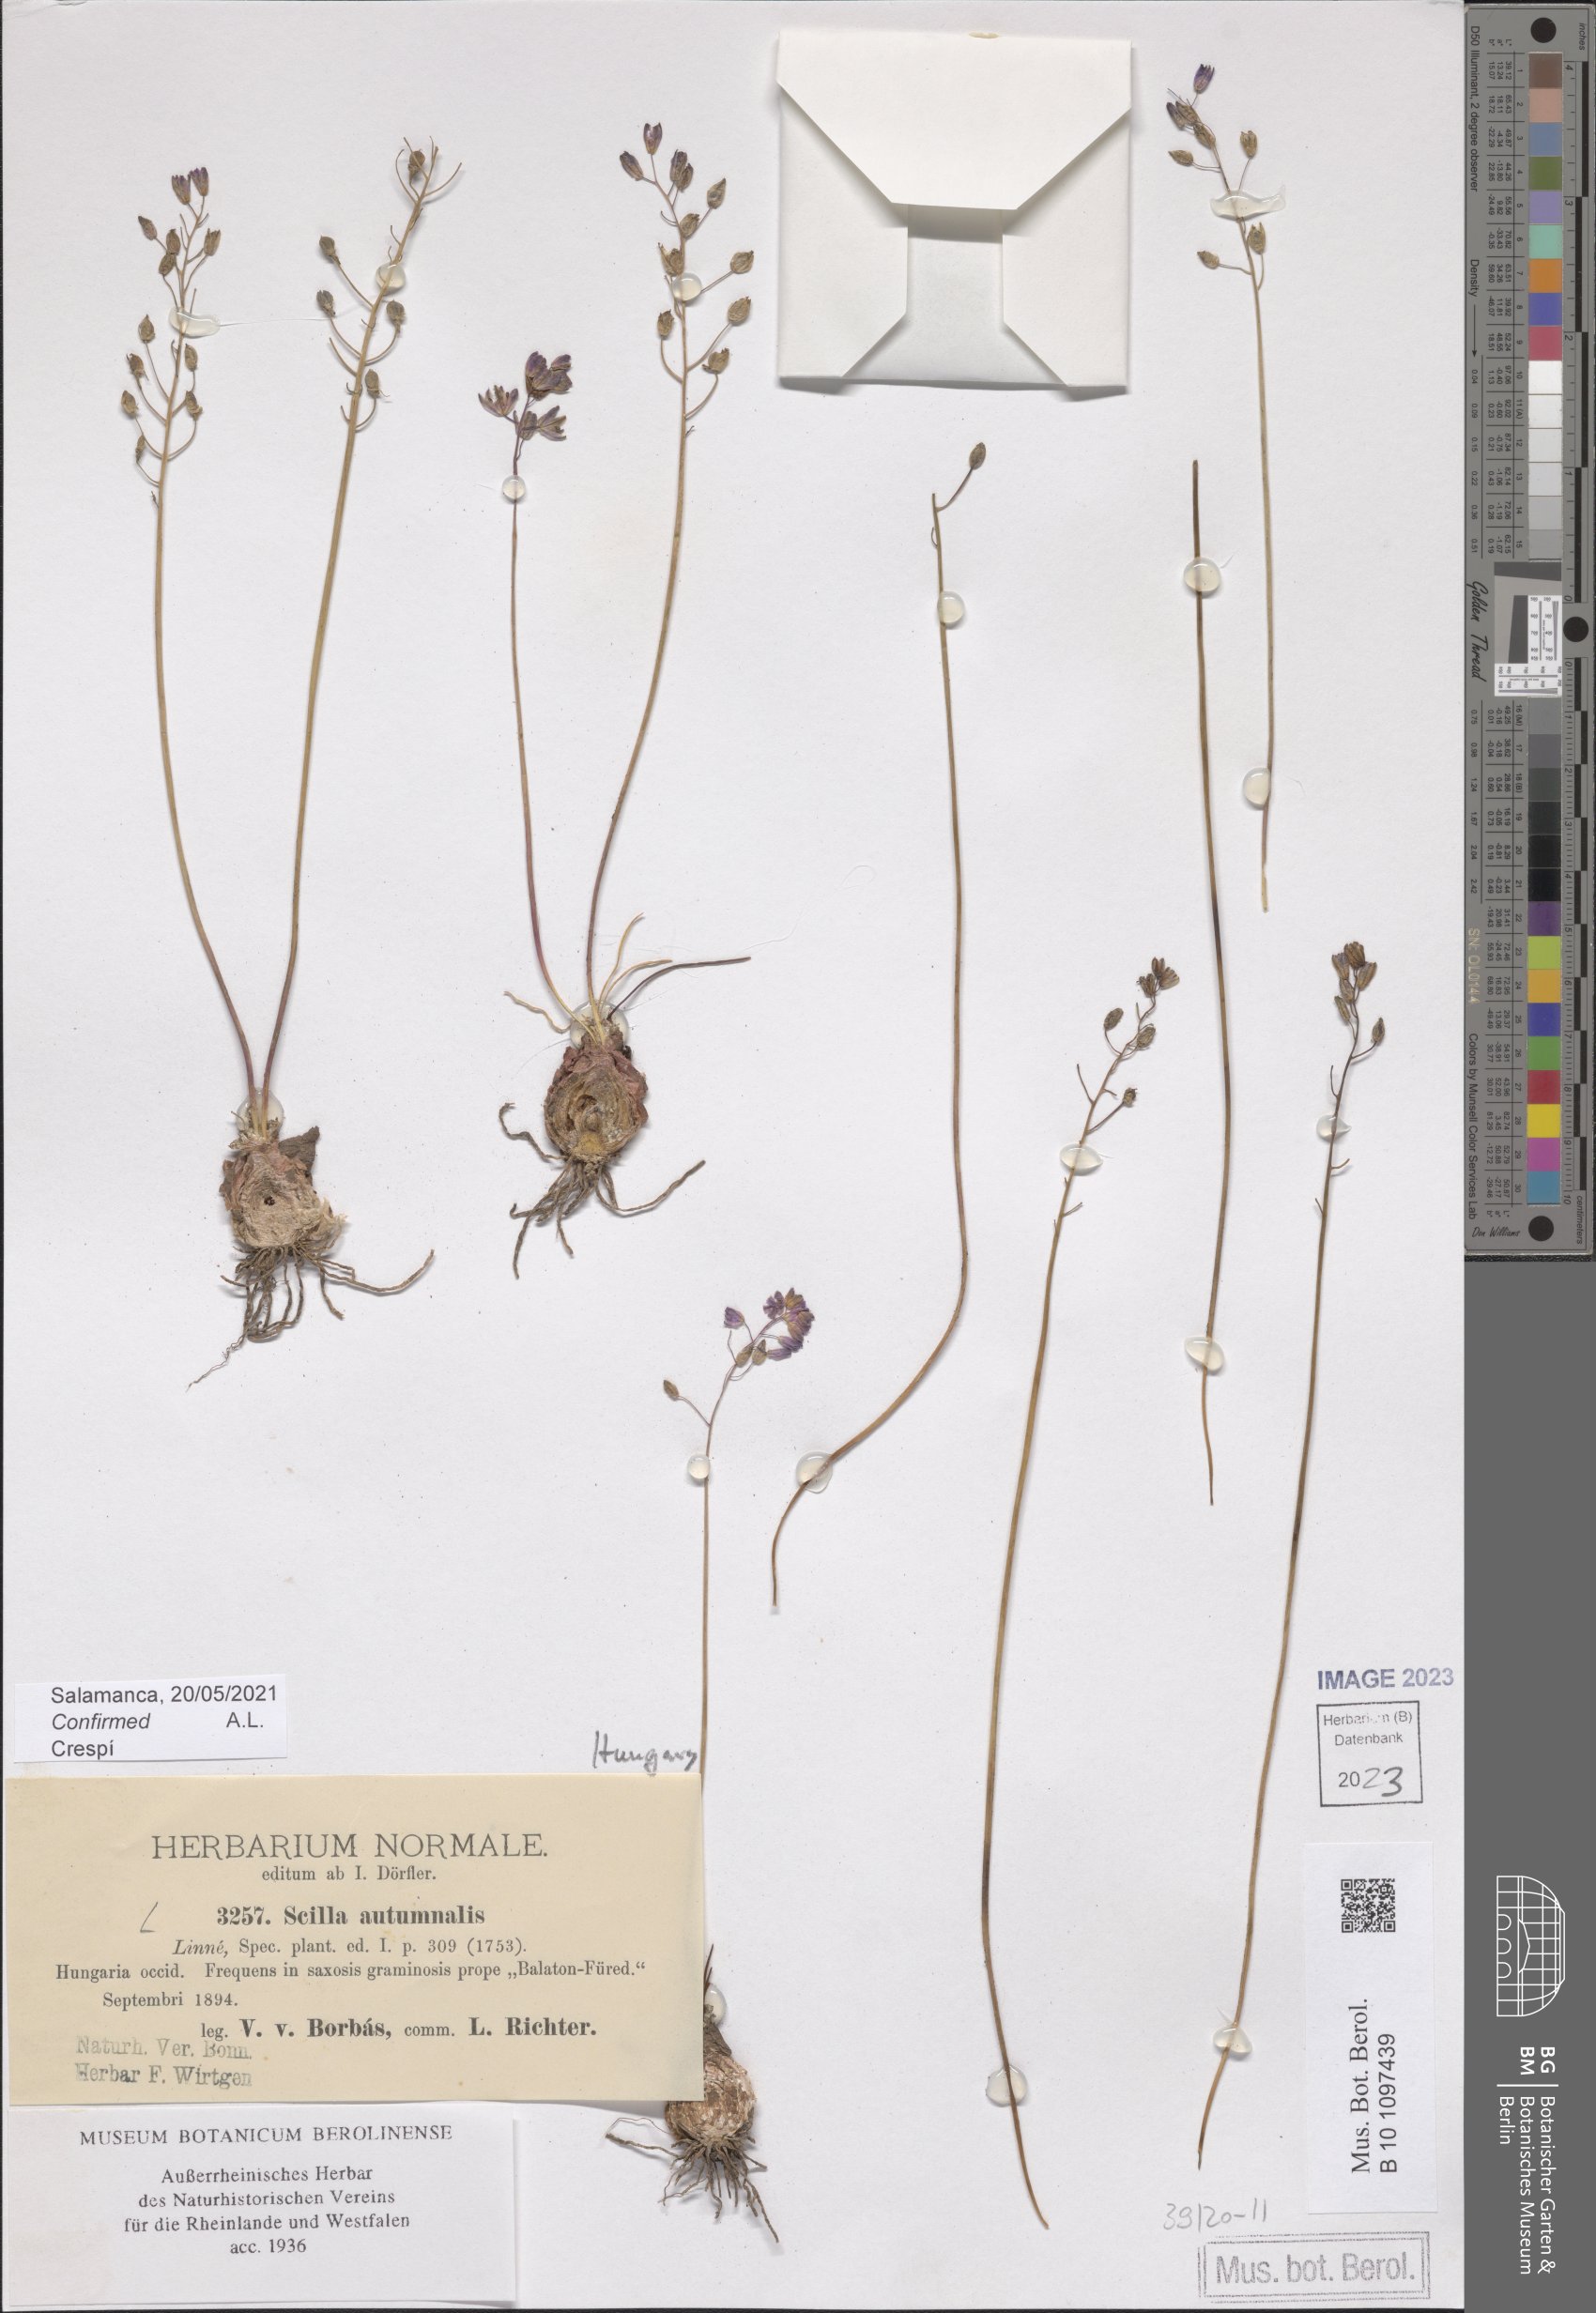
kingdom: Plantae
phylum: Tracheophyta
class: Liliopsida
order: Asparagales
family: Asparagaceae
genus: Prospero
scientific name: Prospero autumnale
